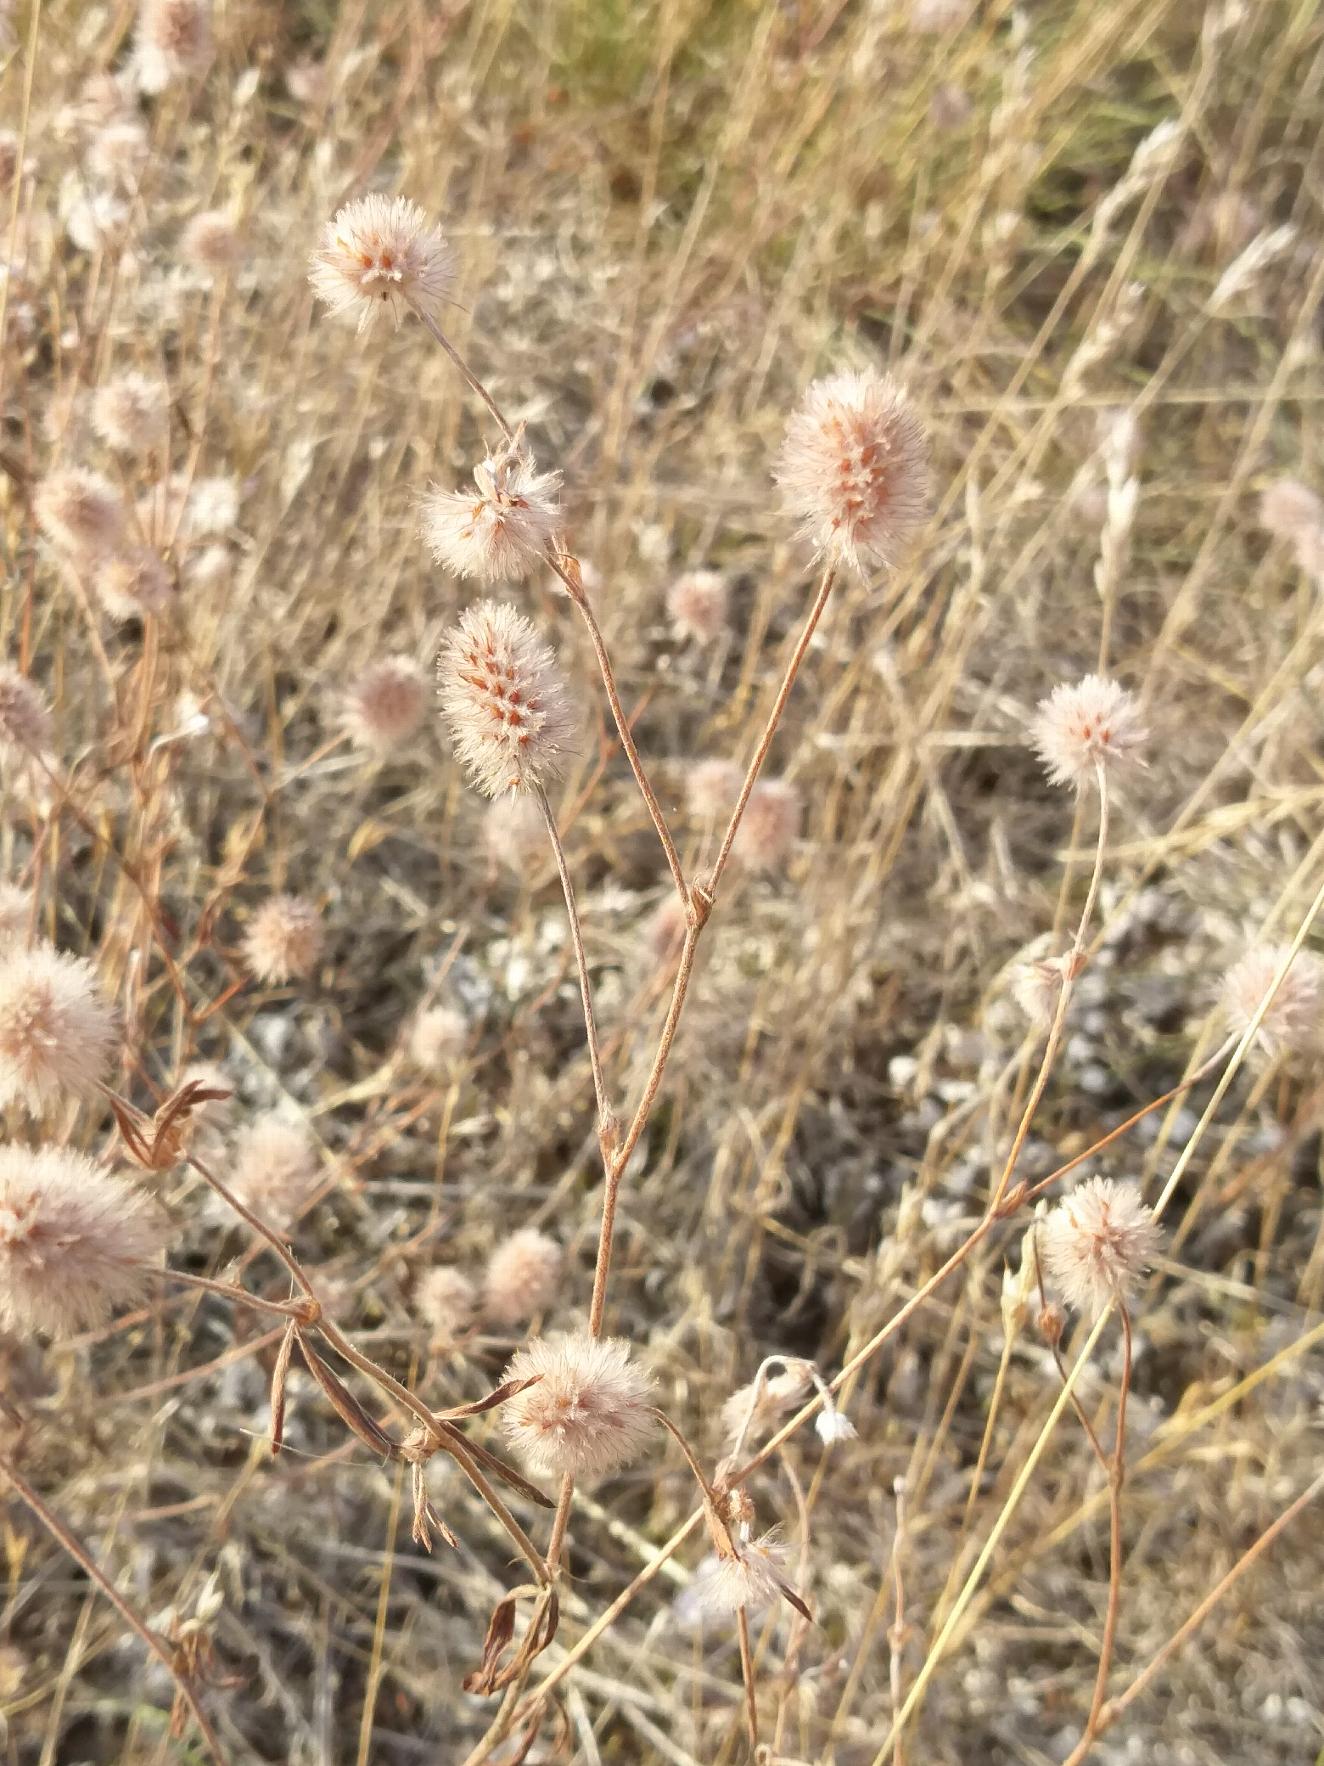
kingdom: Plantae
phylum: Tracheophyta
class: Magnoliopsida
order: Fabales
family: Fabaceae
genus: Trifolium
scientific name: Trifolium arvense
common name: Hare-kløver
